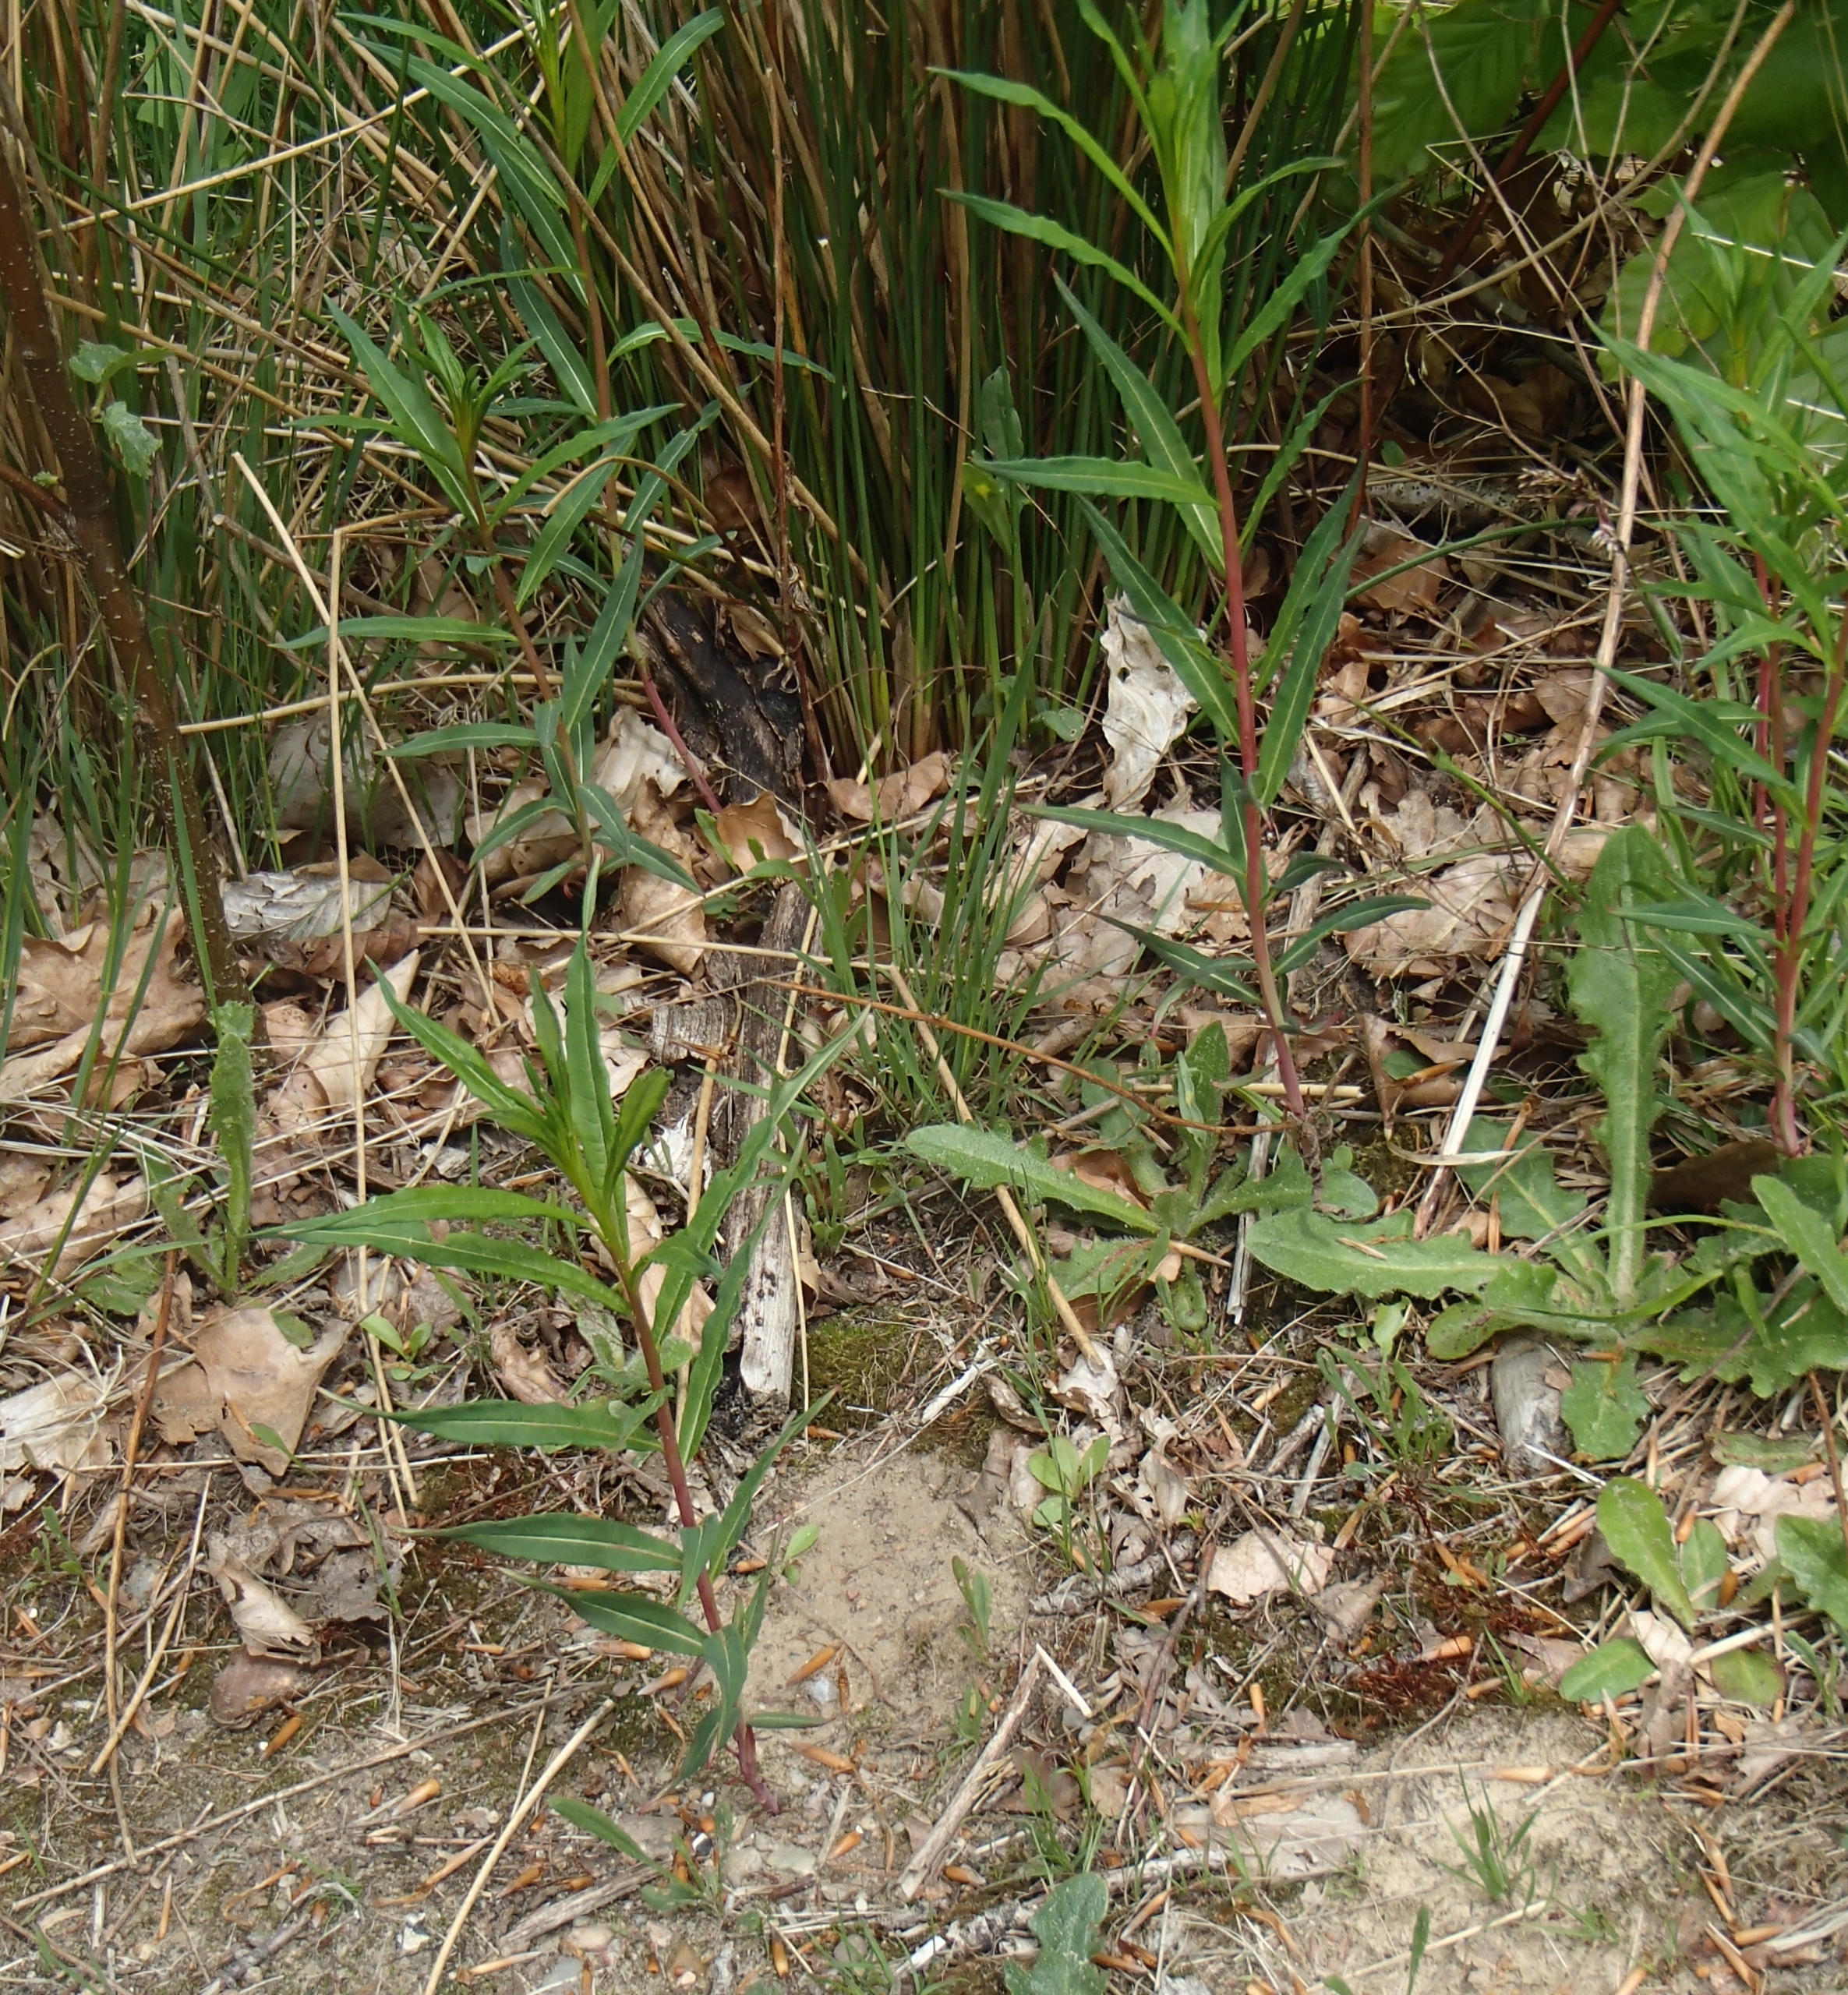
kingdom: Plantae
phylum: Tracheophyta
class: Magnoliopsida
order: Myrtales
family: Onagraceae
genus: Chamaenerion
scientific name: Chamaenerion angustifolium
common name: Gederams
